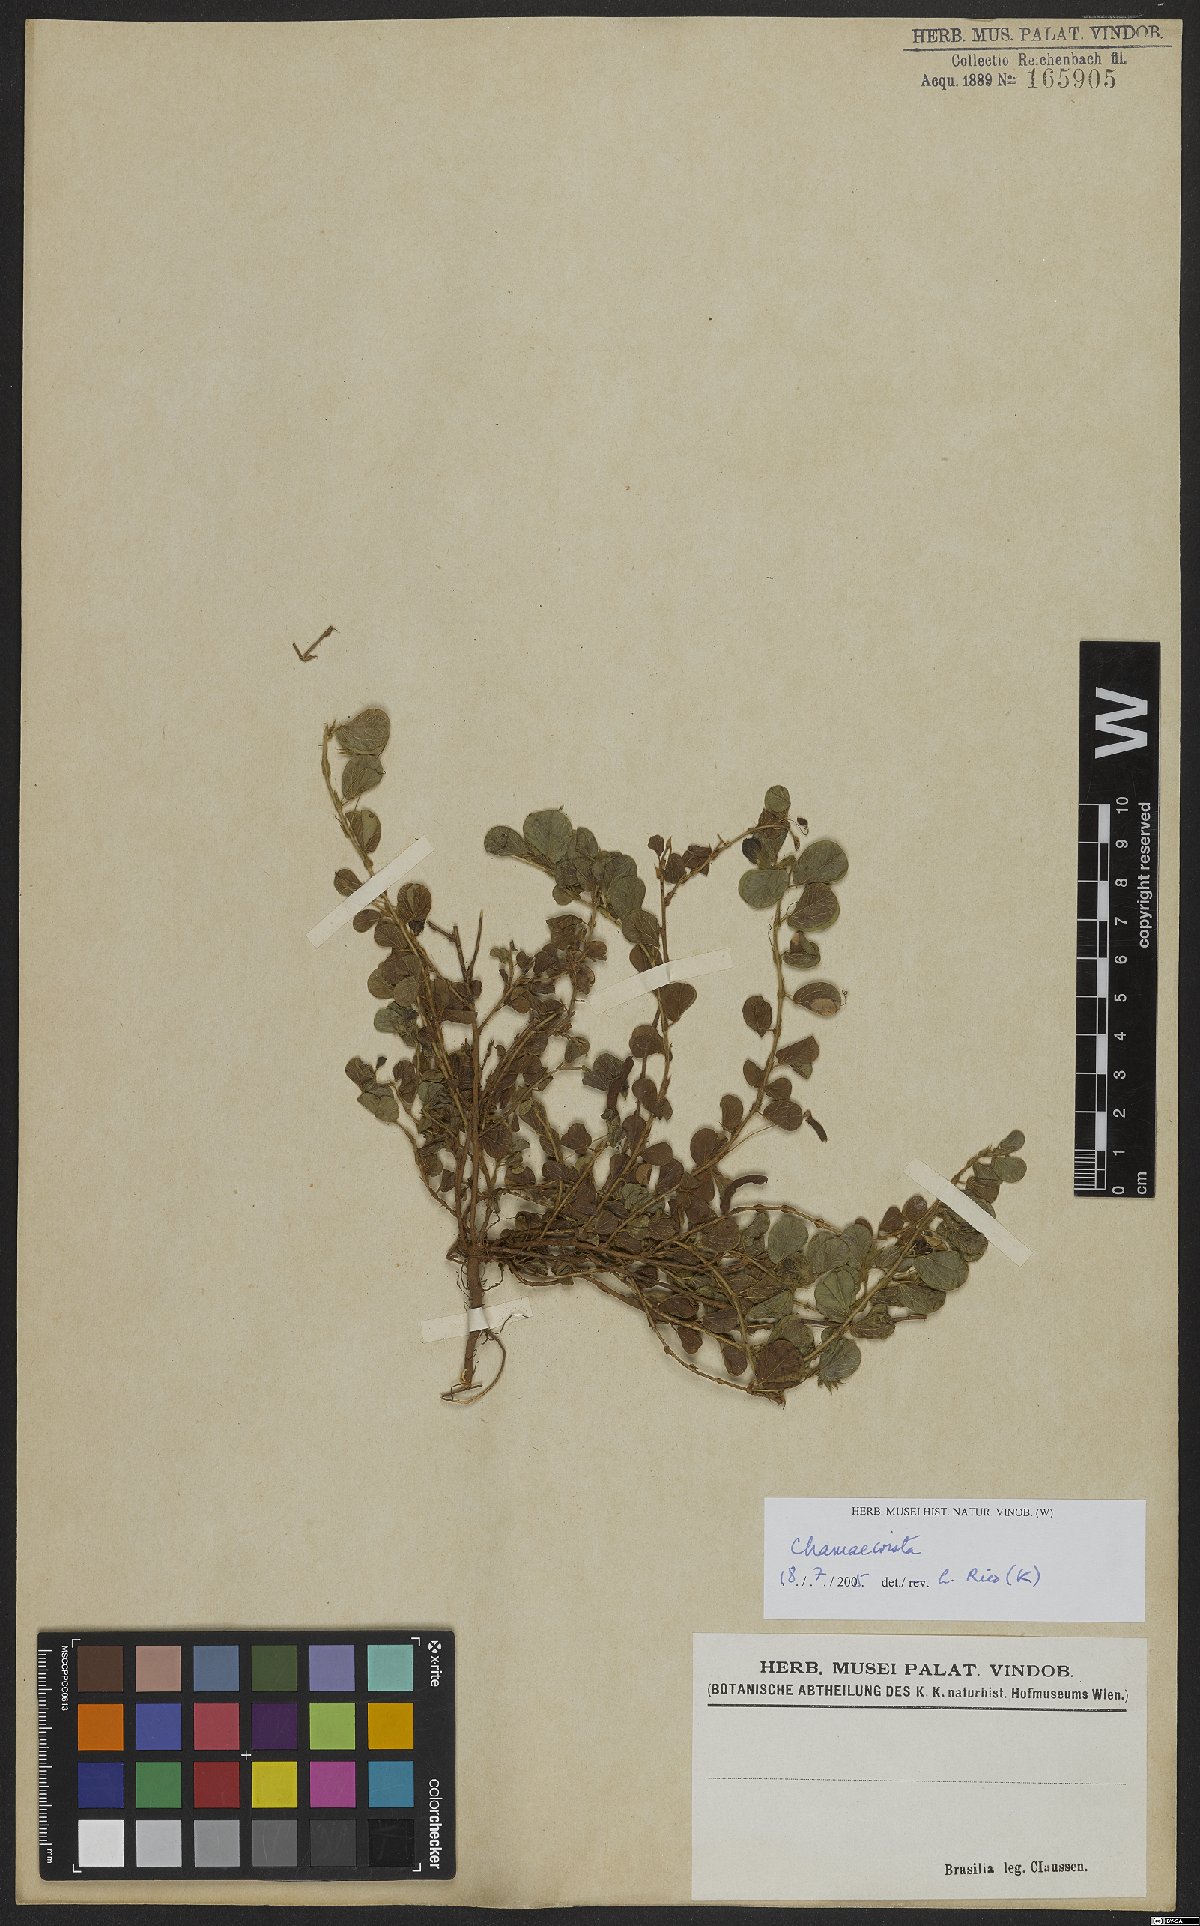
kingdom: Plantae
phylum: Tracheophyta
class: Magnoliopsida
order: Fabales
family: Fabaceae
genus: Chamaecrista
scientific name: Chamaecrista
